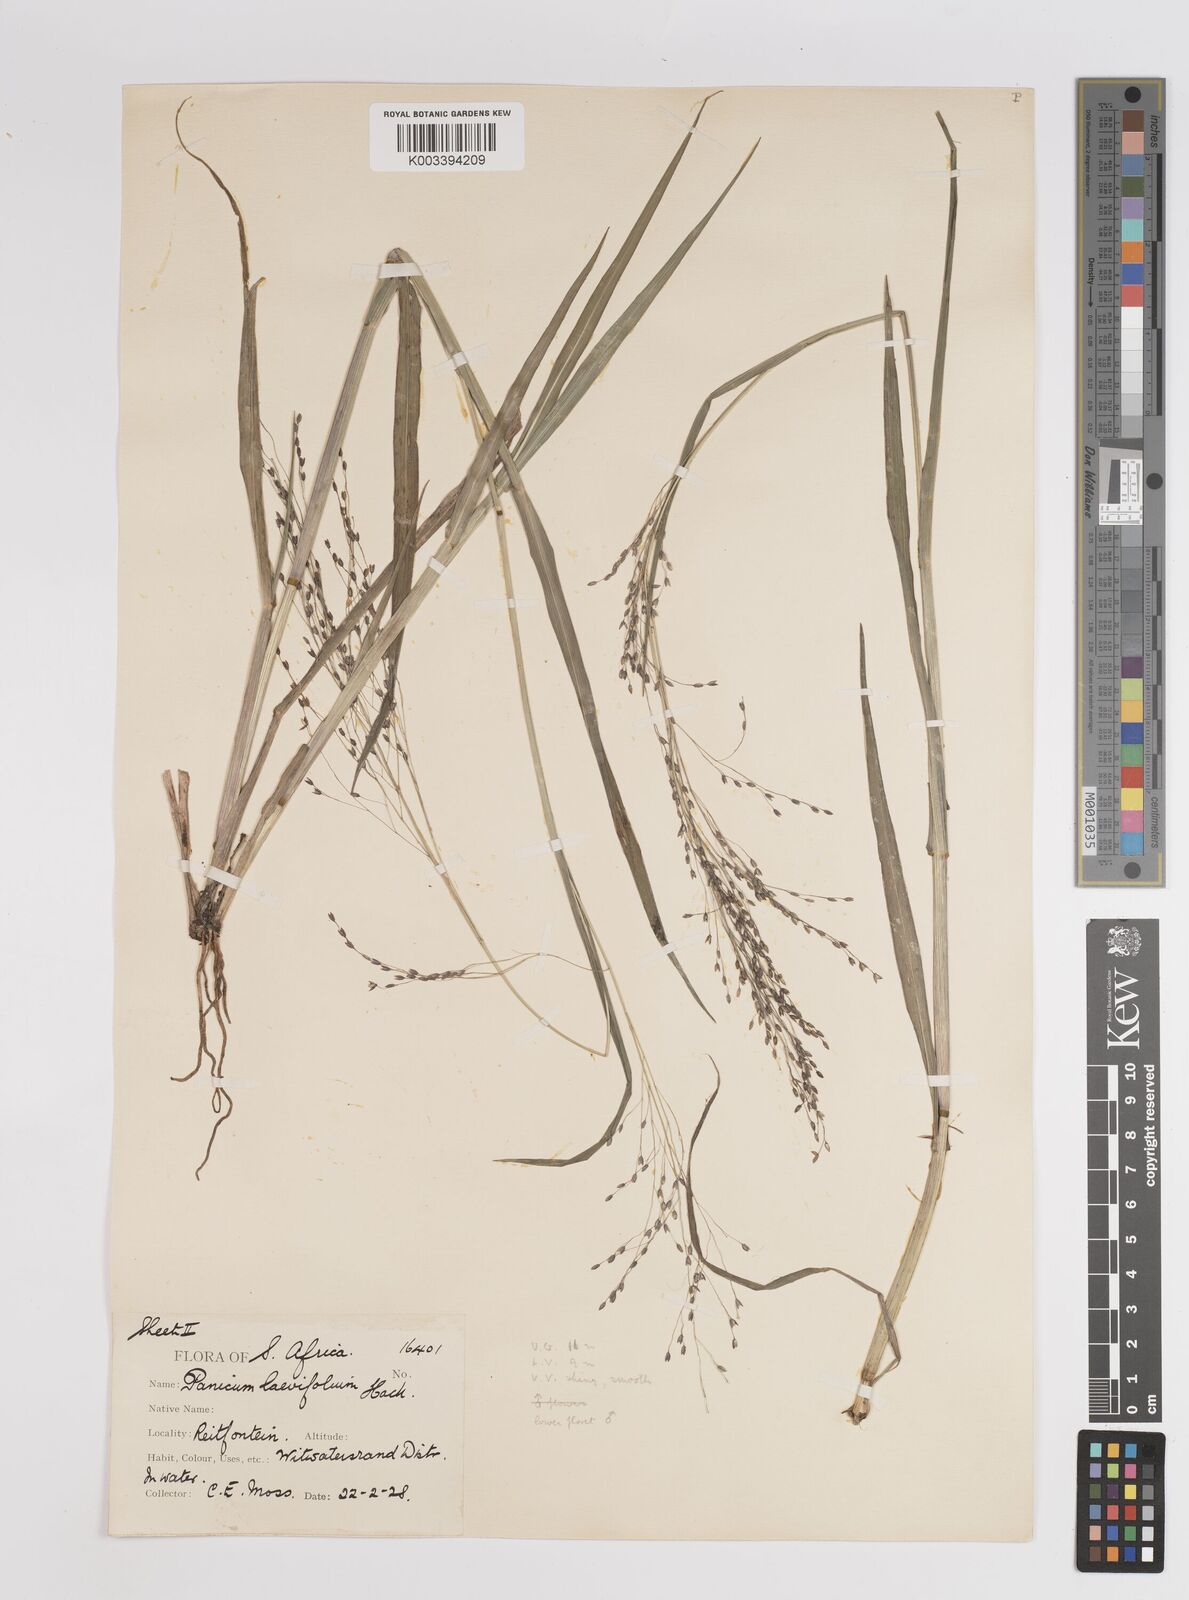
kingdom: Plantae
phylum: Tracheophyta
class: Liliopsida
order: Poales
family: Poaceae
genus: Panicum
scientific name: Panicum schinzii
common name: Sweet grass
